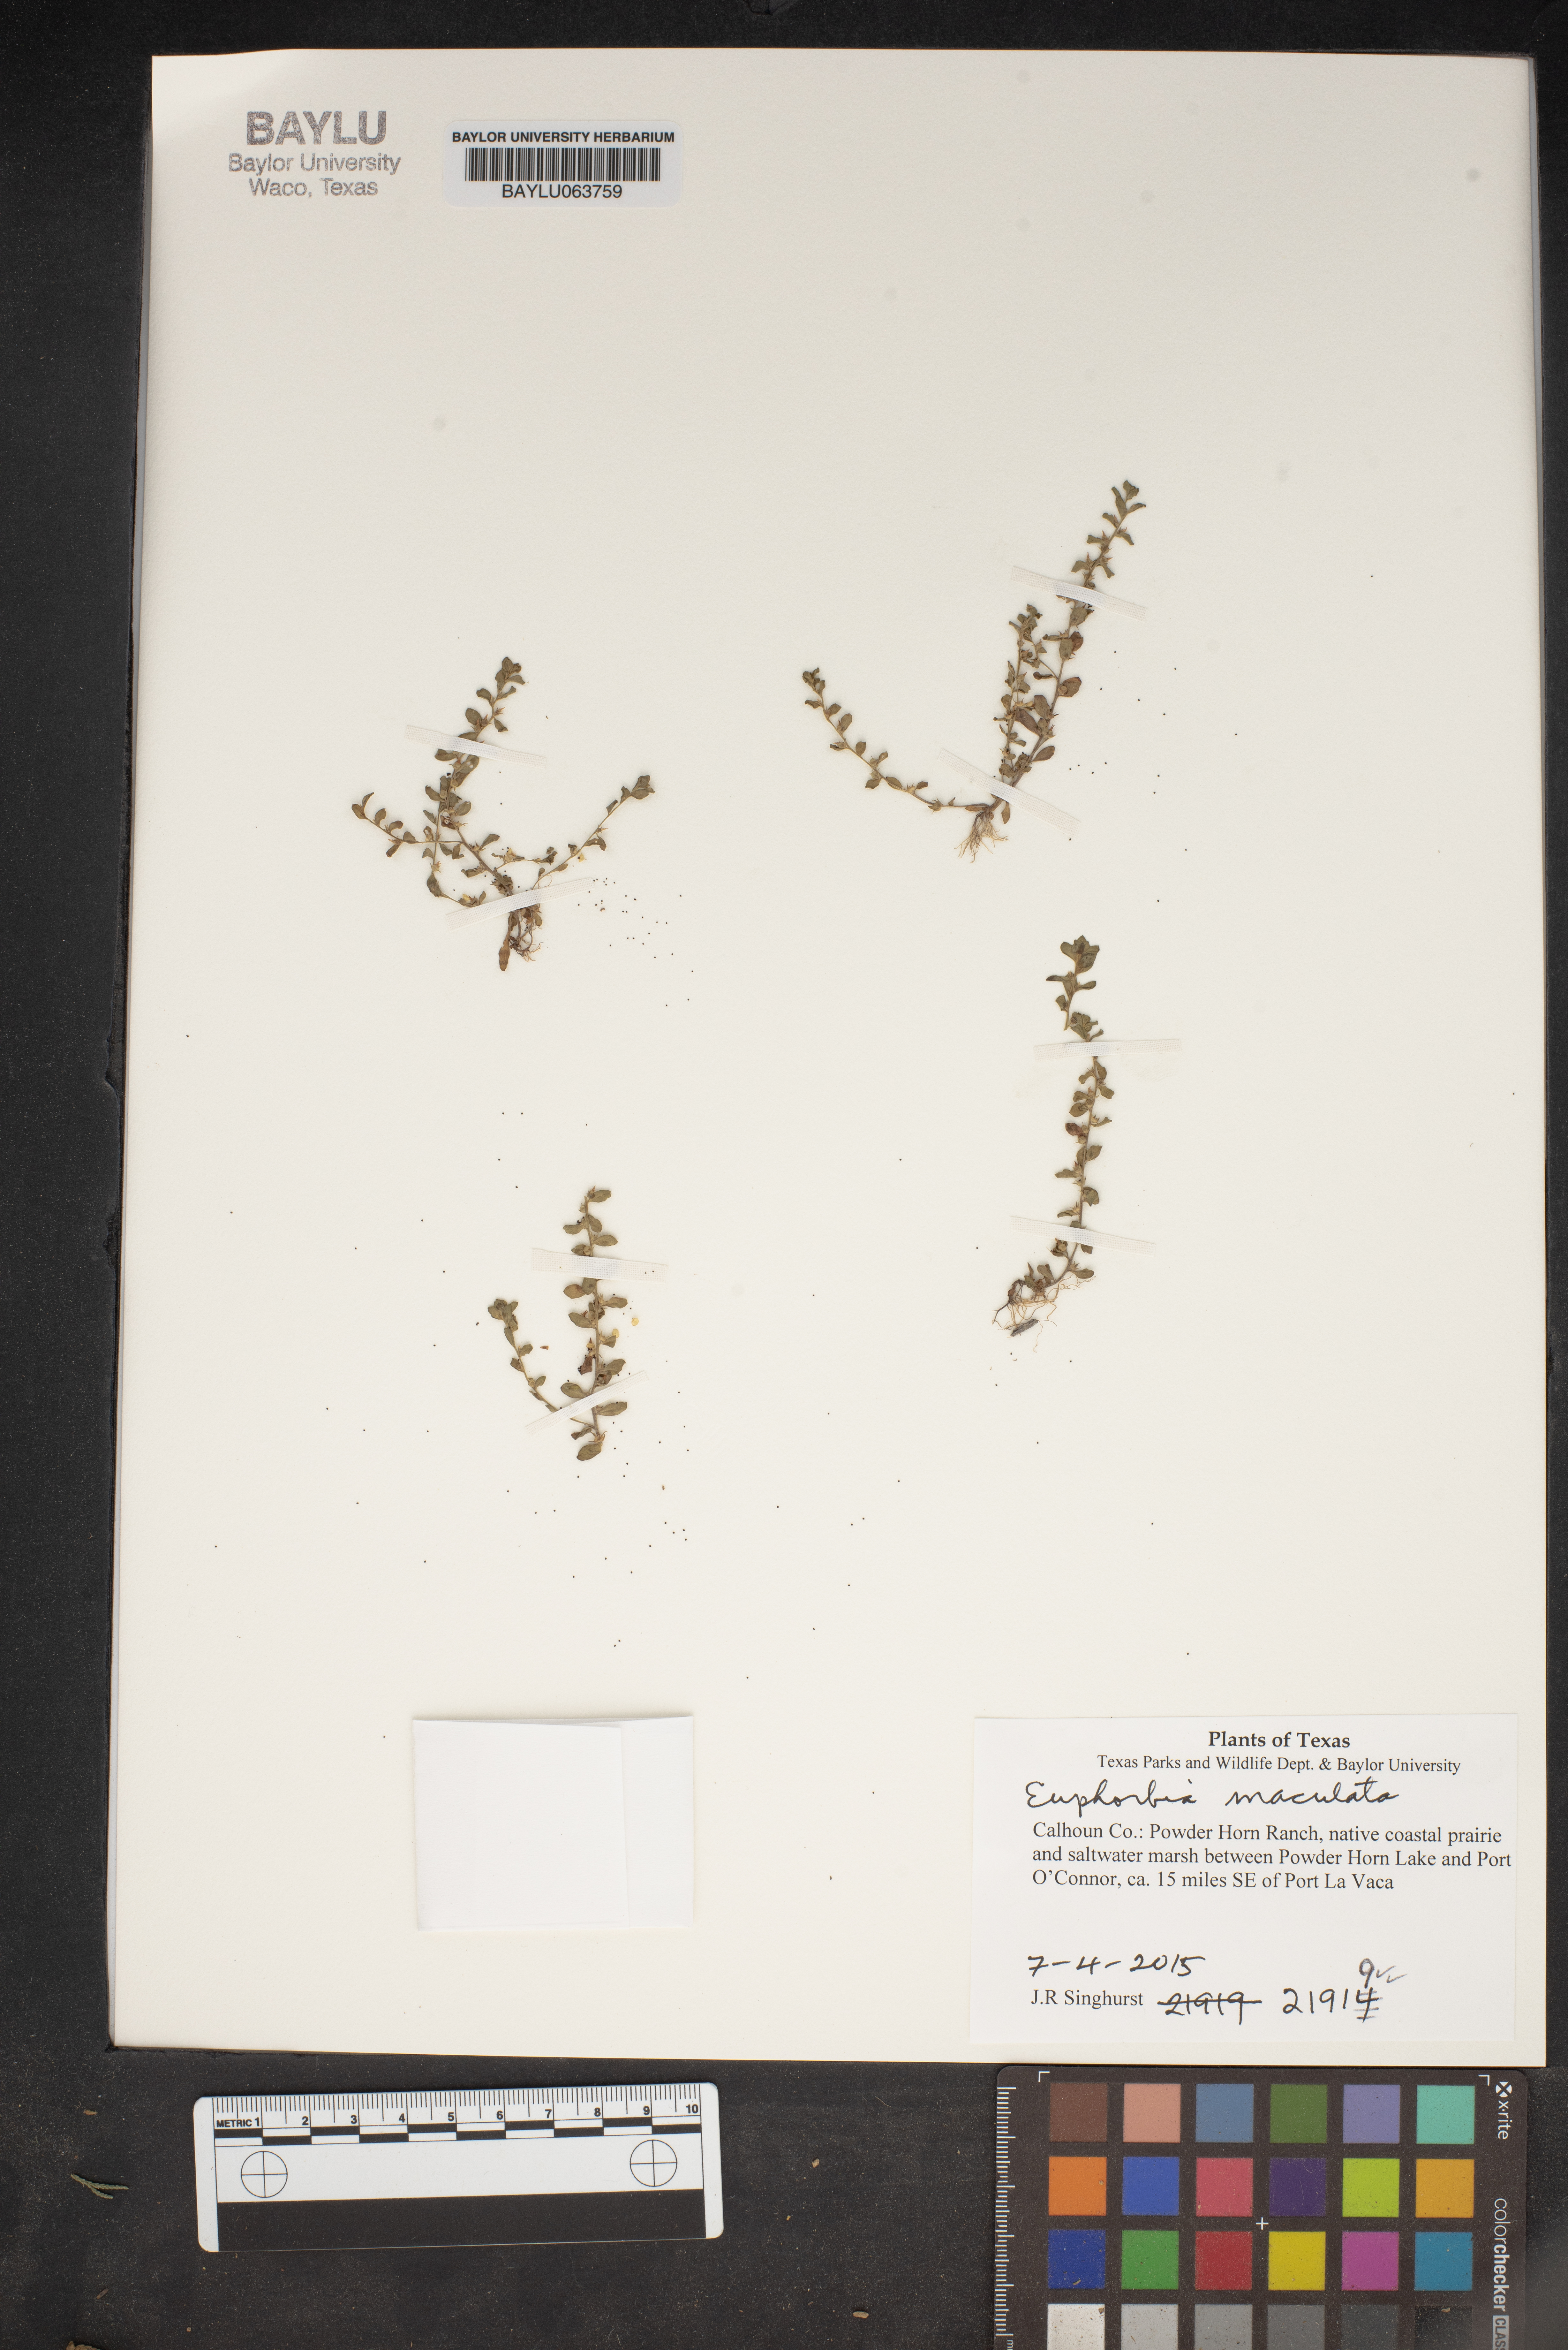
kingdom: Plantae
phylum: Tracheophyta
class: Magnoliopsida
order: Malpighiales
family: Euphorbiaceae
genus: Euphorbia
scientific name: Euphorbia maculata
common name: Spotted spurge
